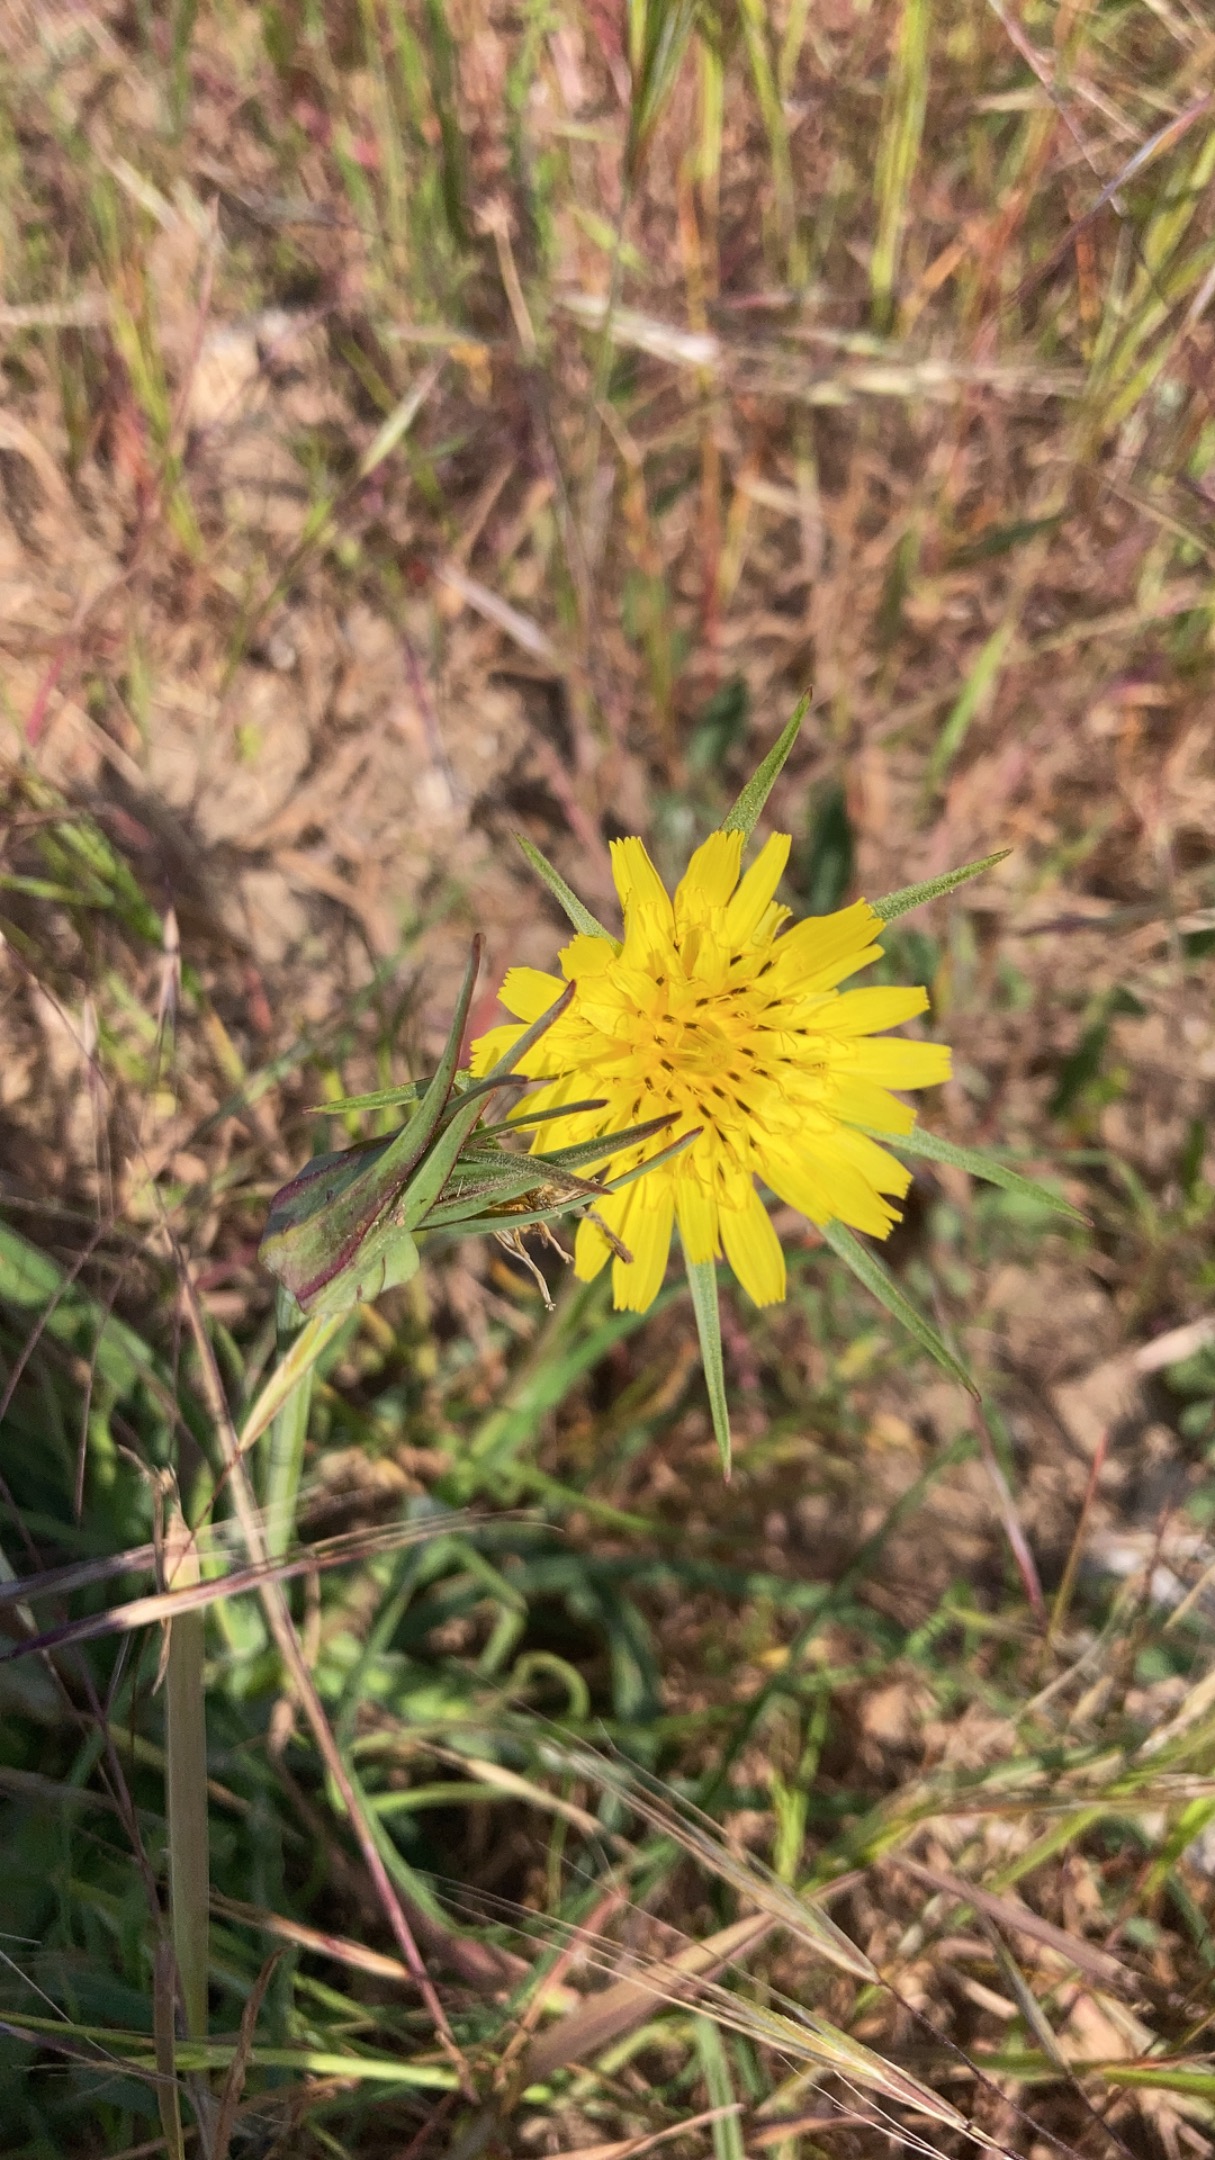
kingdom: Plantae
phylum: Tracheophyta
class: Magnoliopsida
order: Asterales
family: Asteraceae
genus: Tragopogon
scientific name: Tragopogon pratensis
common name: Gedeskæg
